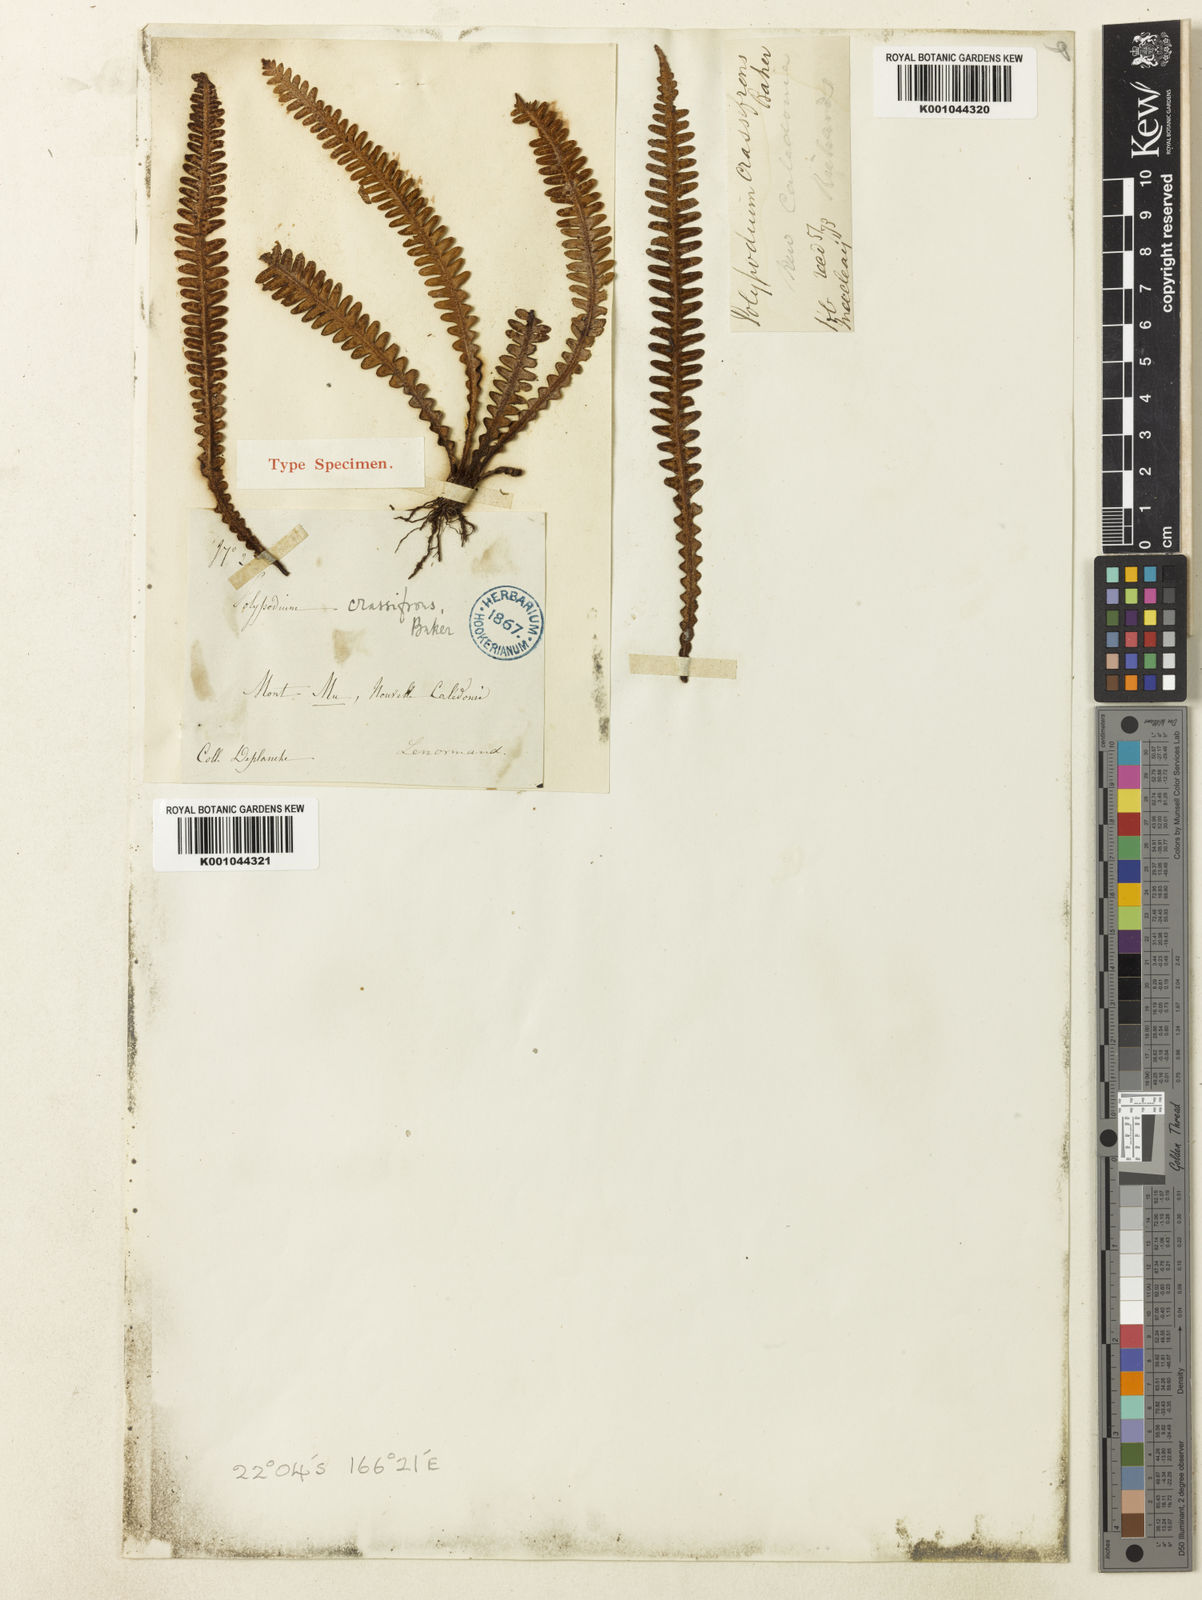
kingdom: Plantae
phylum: Tracheophyta
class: Polypodiopsida
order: Polypodiales
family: Polypodiaceae
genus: Dasygrammitis
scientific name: Dasygrammitis crassifrons
